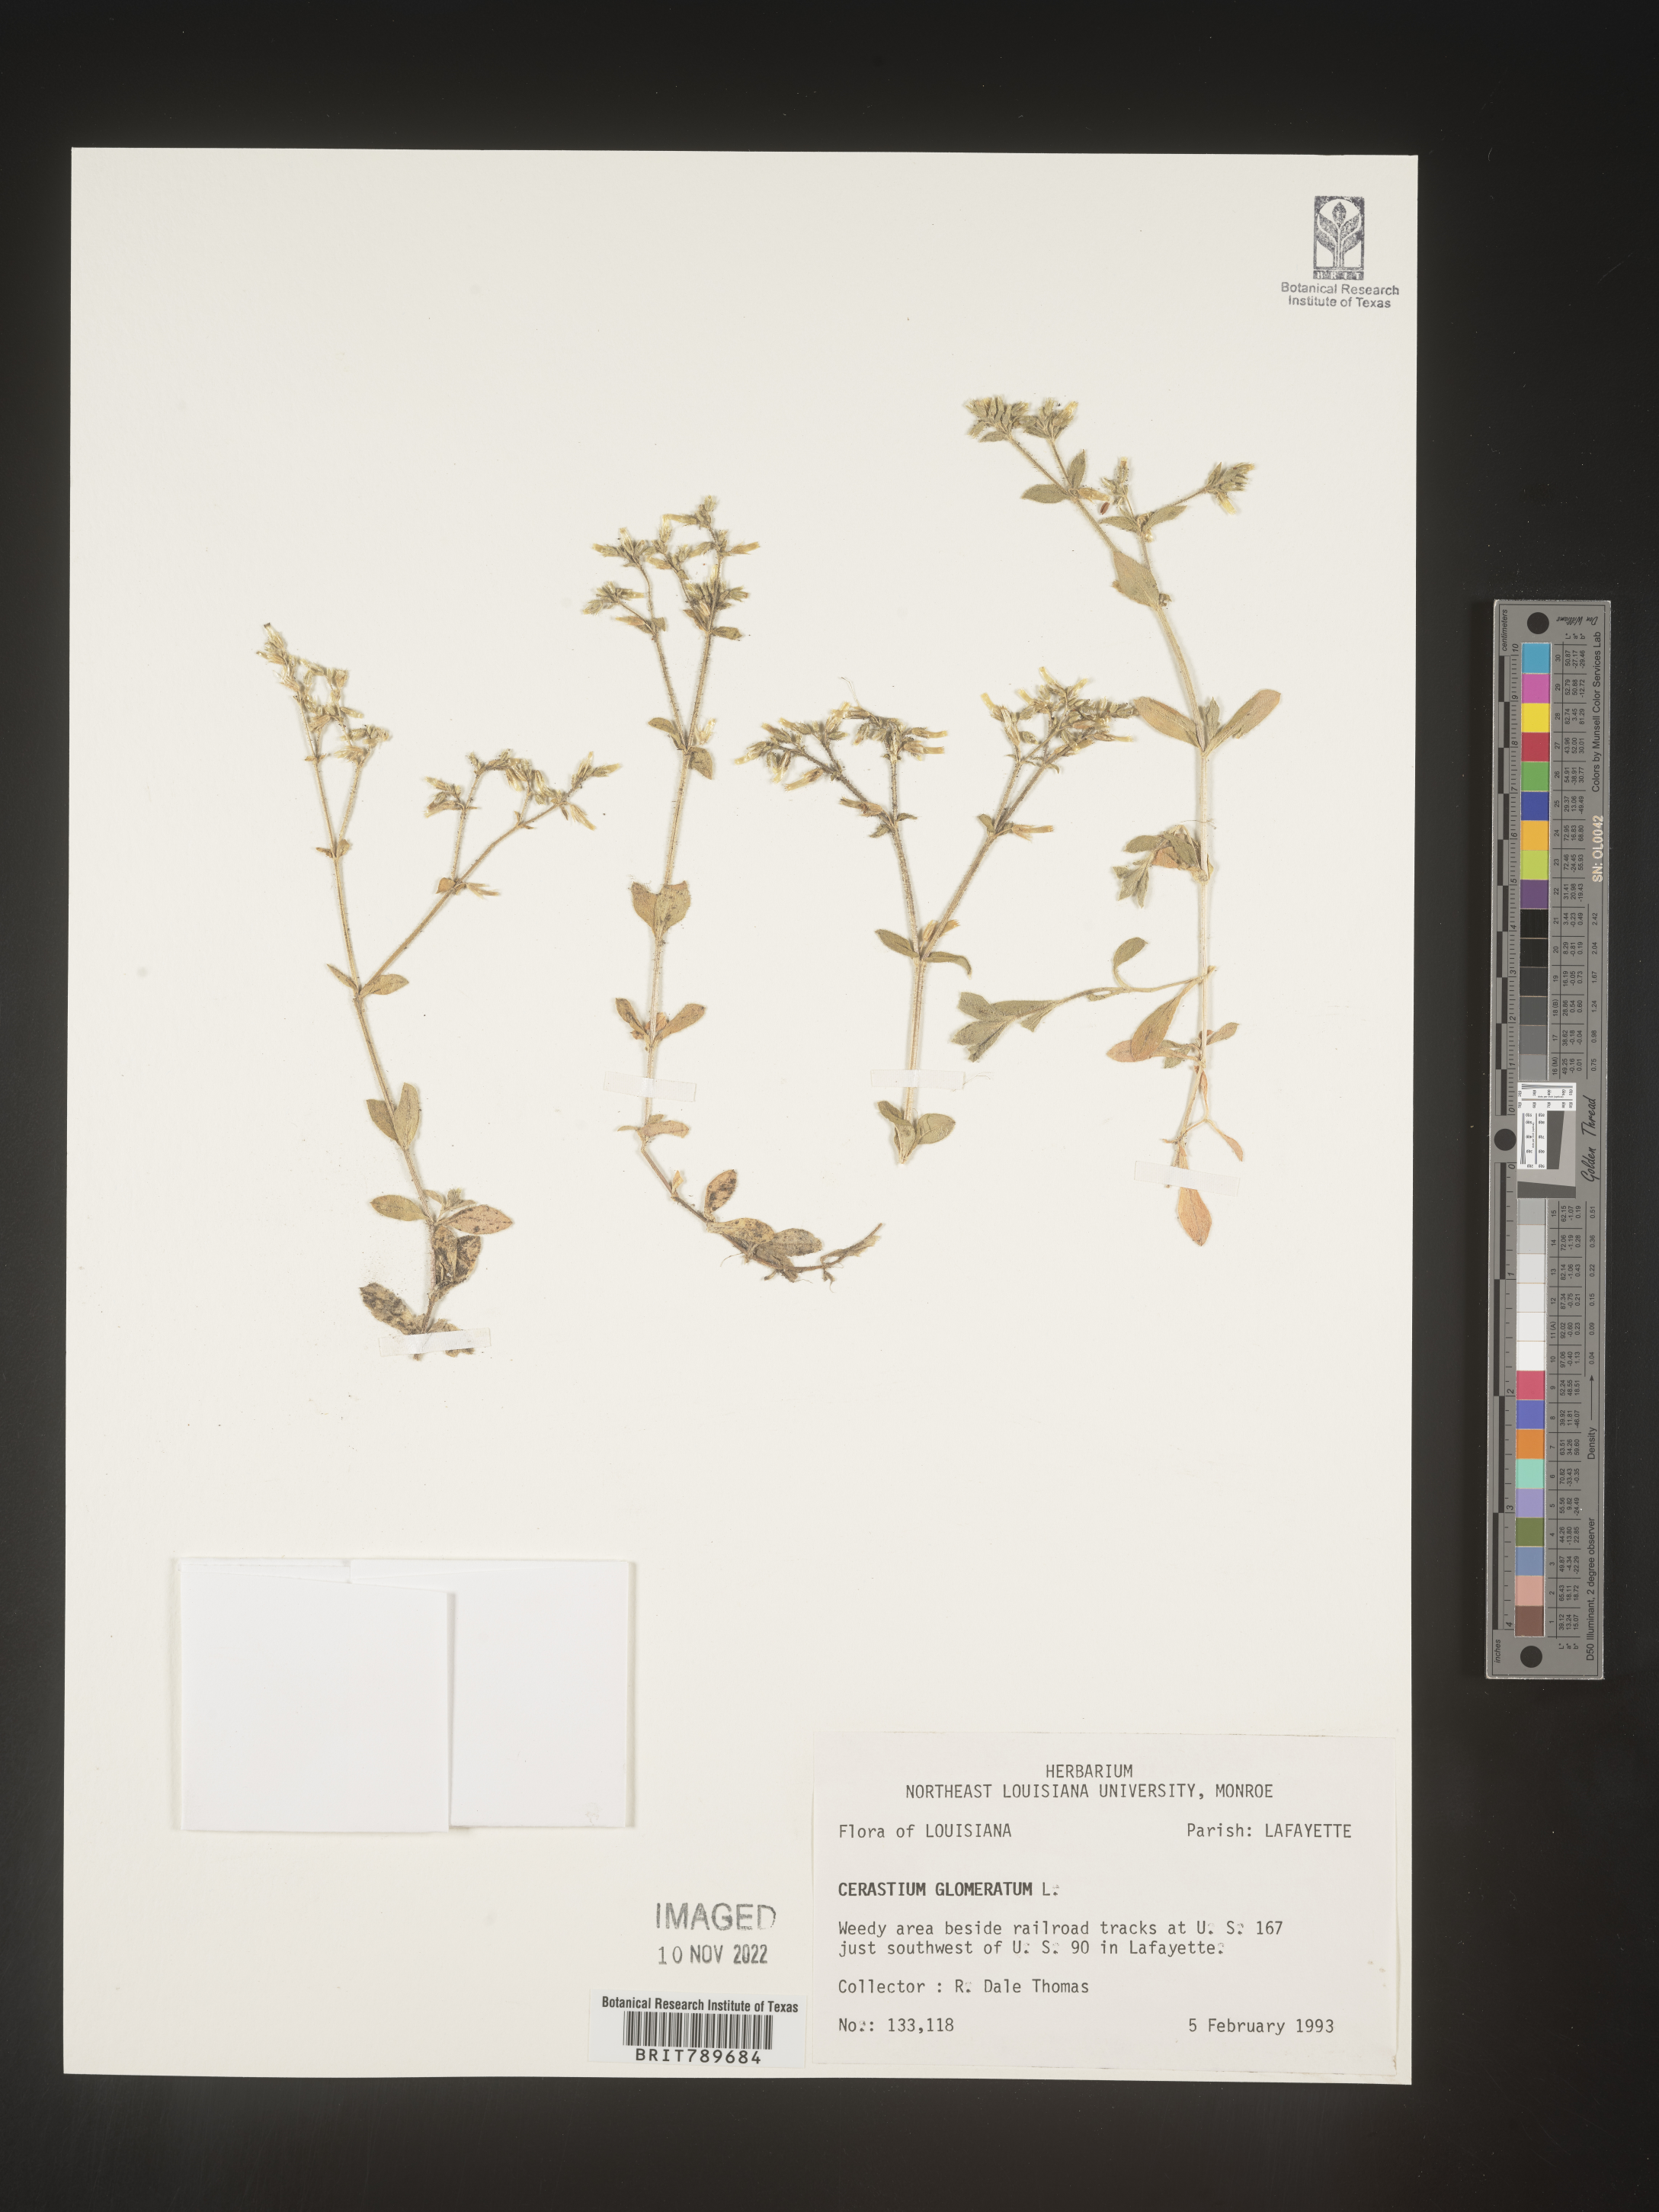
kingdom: Plantae
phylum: Tracheophyta
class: Magnoliopsida
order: Caryophyllales
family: Caryophyllaceae
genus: Cerastium
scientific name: Cerastium glomeratum
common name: Sticky chickweed
